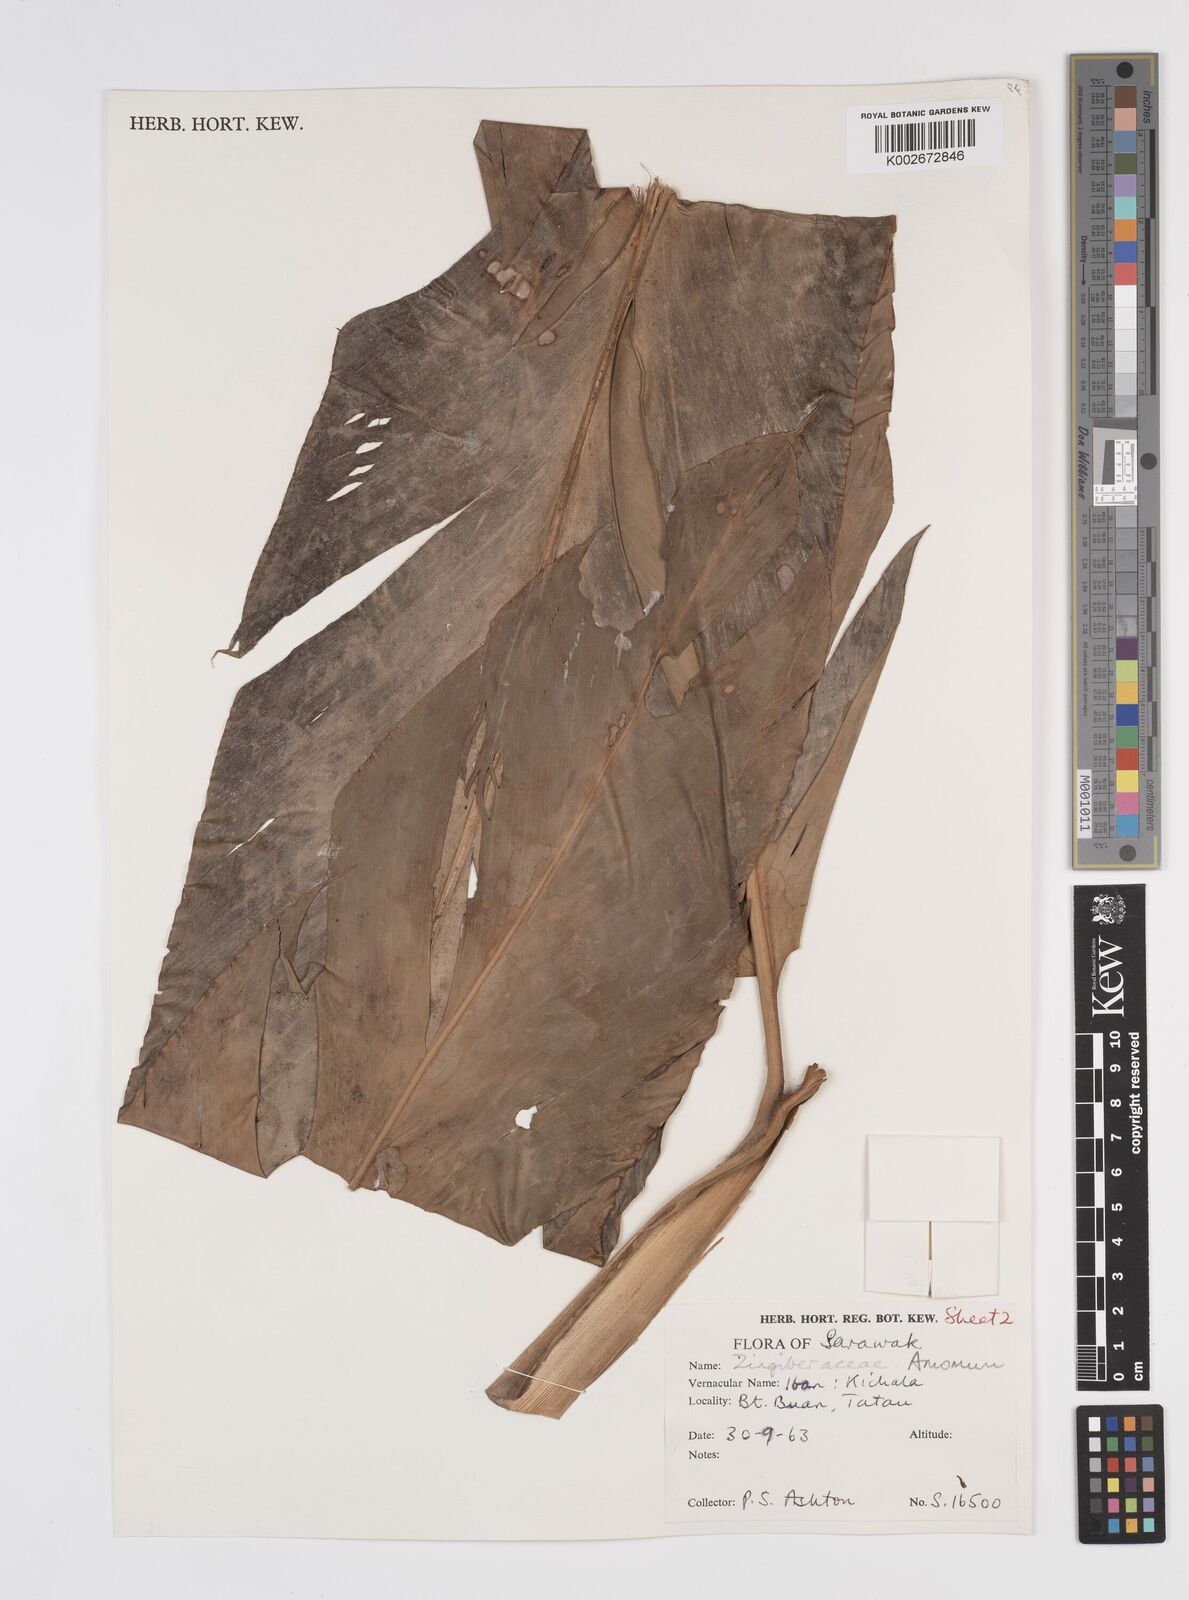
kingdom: Plantae
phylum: Tracheophyta
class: Liliopsida
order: Zingiberales
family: Zingiberaceae
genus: Etlingera
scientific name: Etlingera
